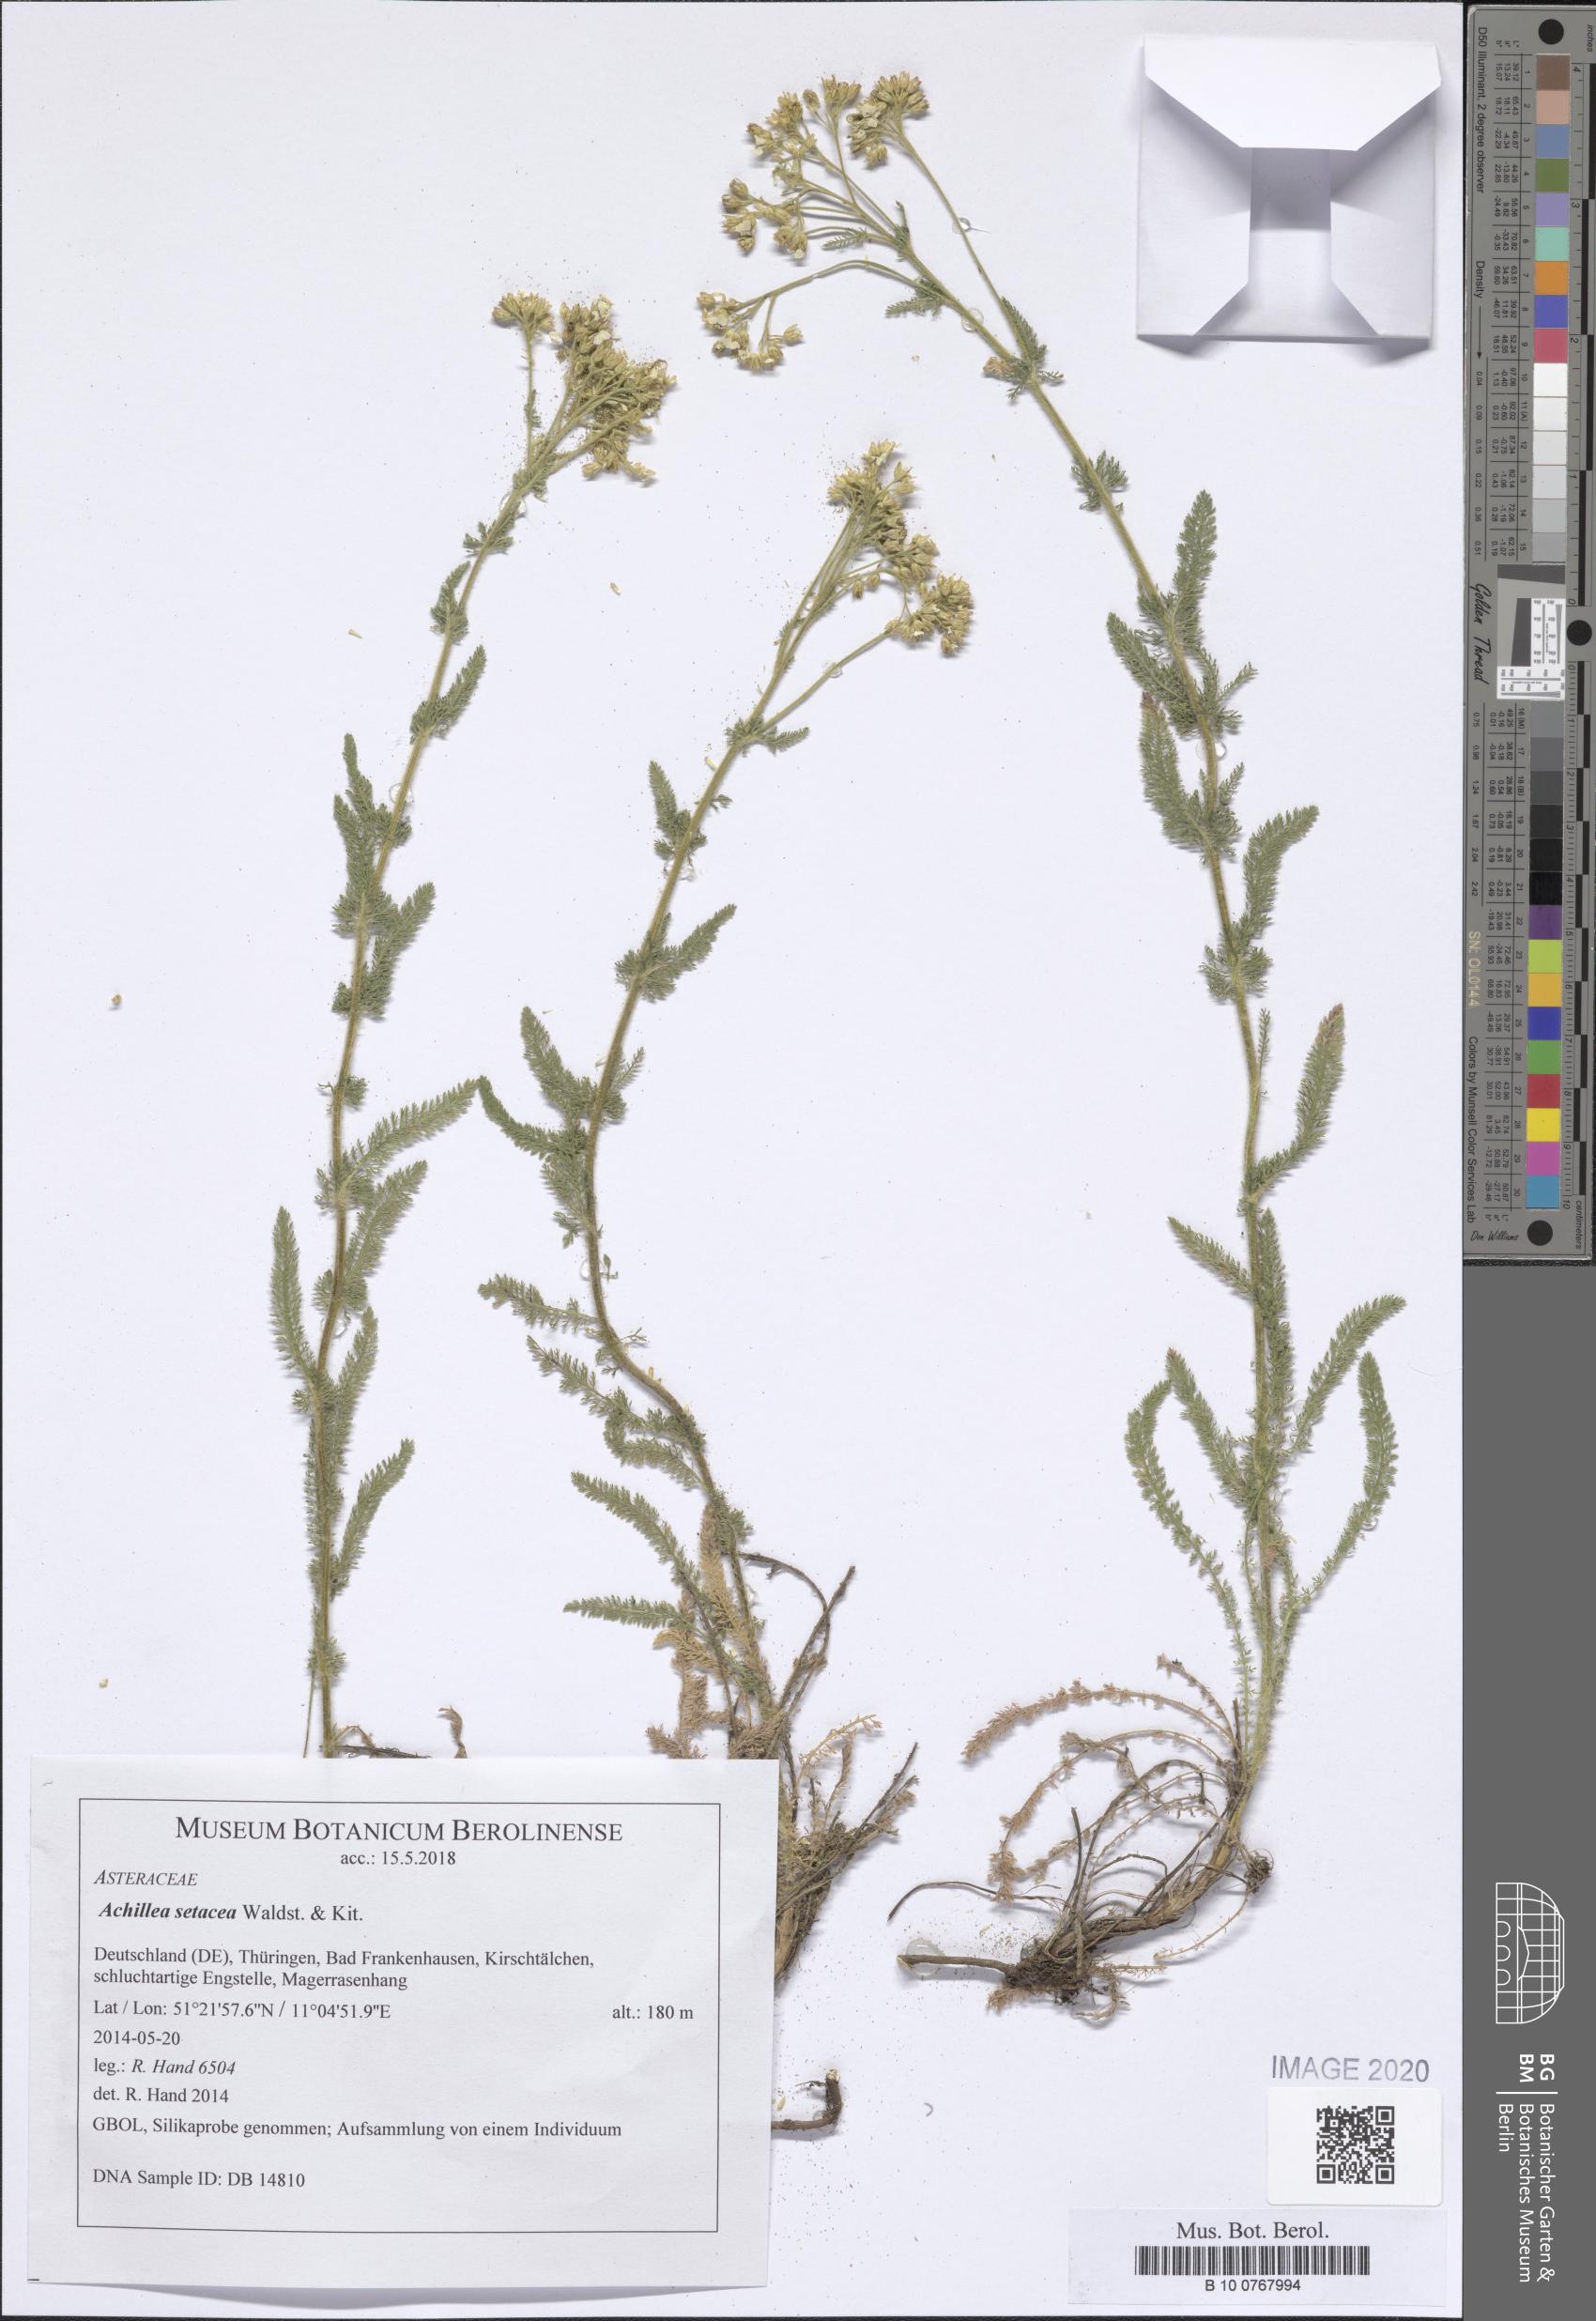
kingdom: Plantae
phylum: Tracheophyta
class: Magnoliopsida
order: Asterales
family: Asteraceae
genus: Achillea
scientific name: Achillea setacea
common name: Bristly yarrow
